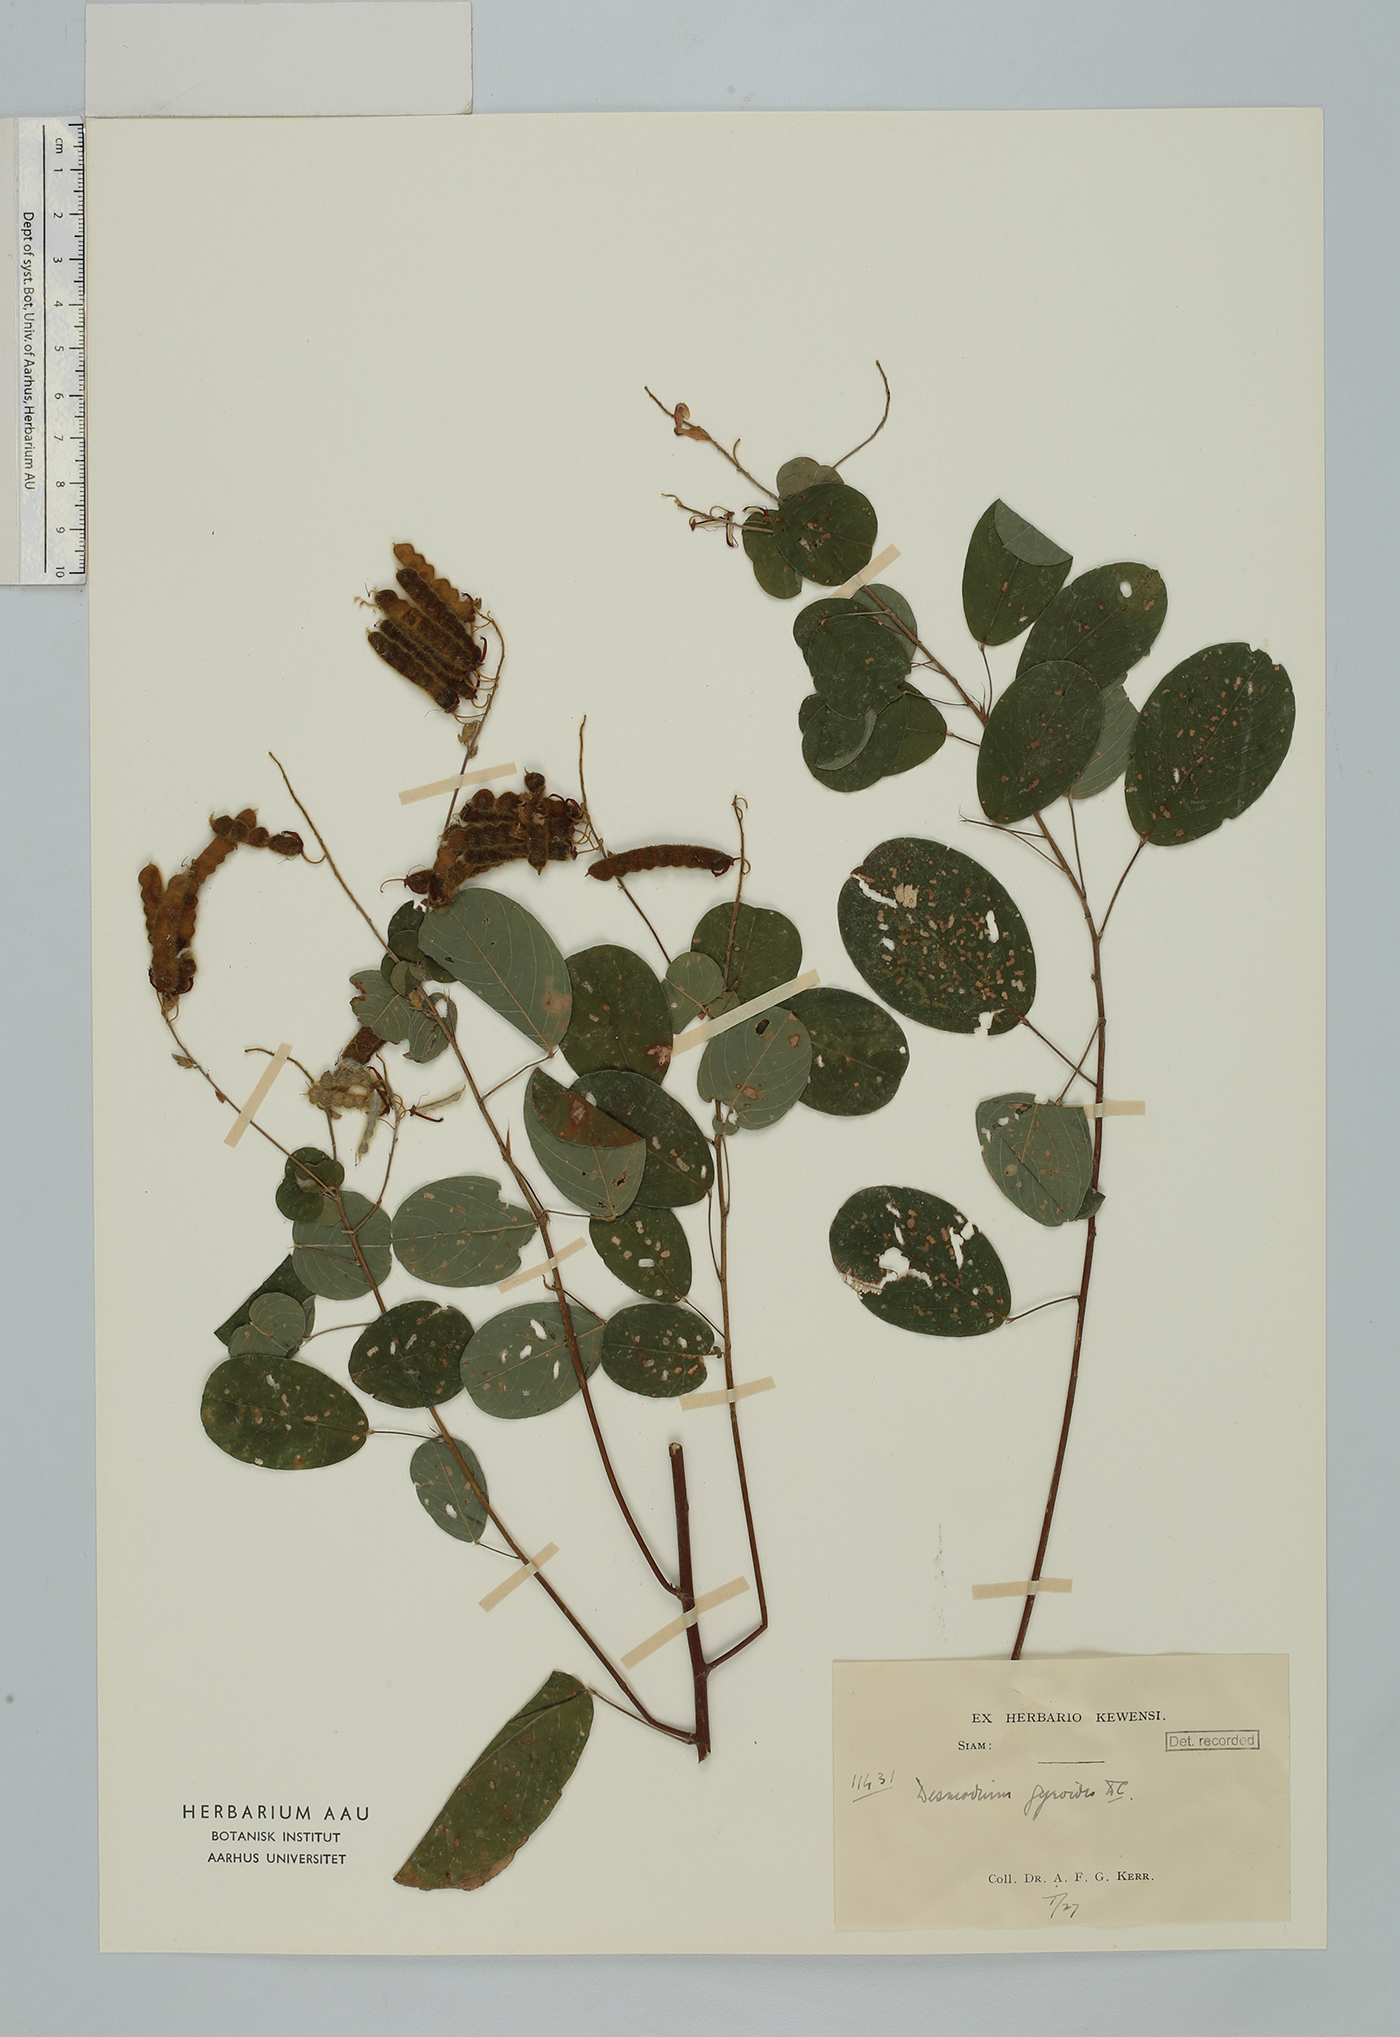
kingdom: Plantae
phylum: Tracheophyta
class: Magnoliopsida
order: Fabales
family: Fabaceae
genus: Codariocalyx
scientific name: Codariocalyx gyroides
